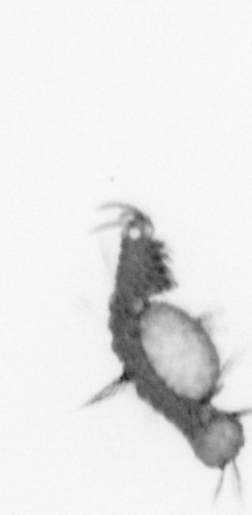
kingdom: Animalia
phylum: Annelida
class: Polychaeta
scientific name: Polychaeta
